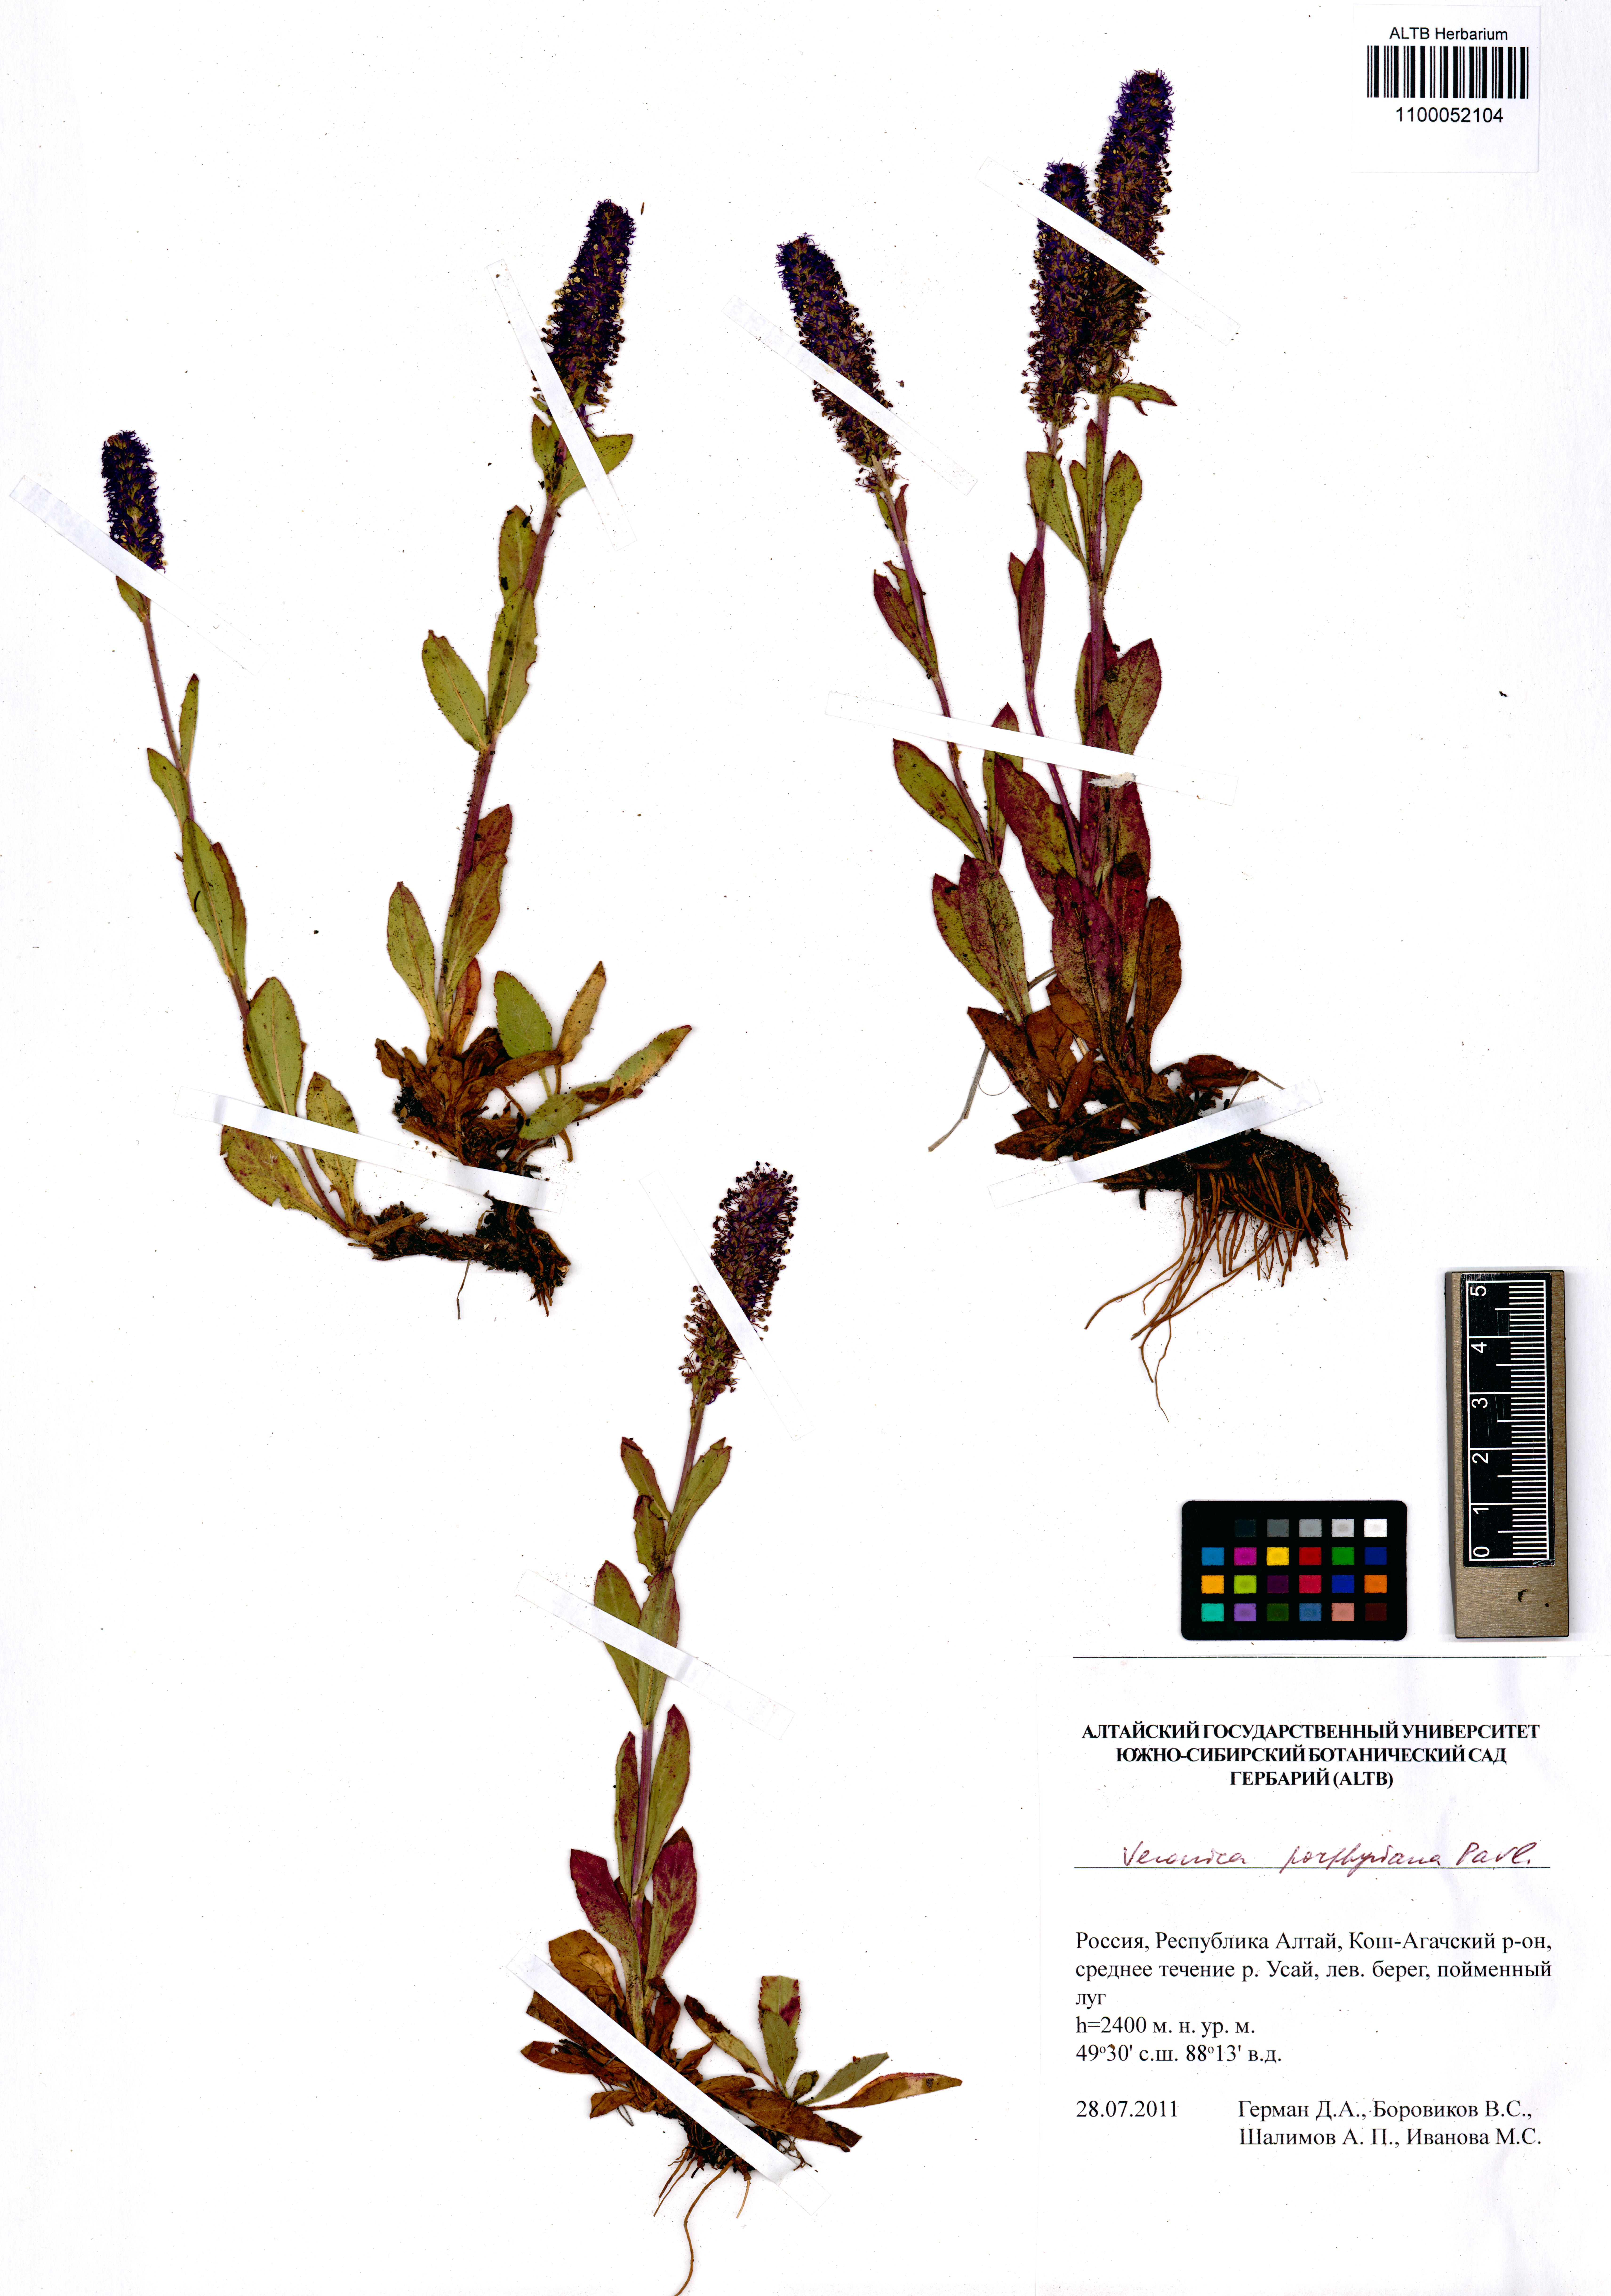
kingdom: Plantae
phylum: Tracheophyta
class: Magnoliopsida
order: Lamiales
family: Plantaginaceae
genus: Veronica
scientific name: Veronica porphyriana
